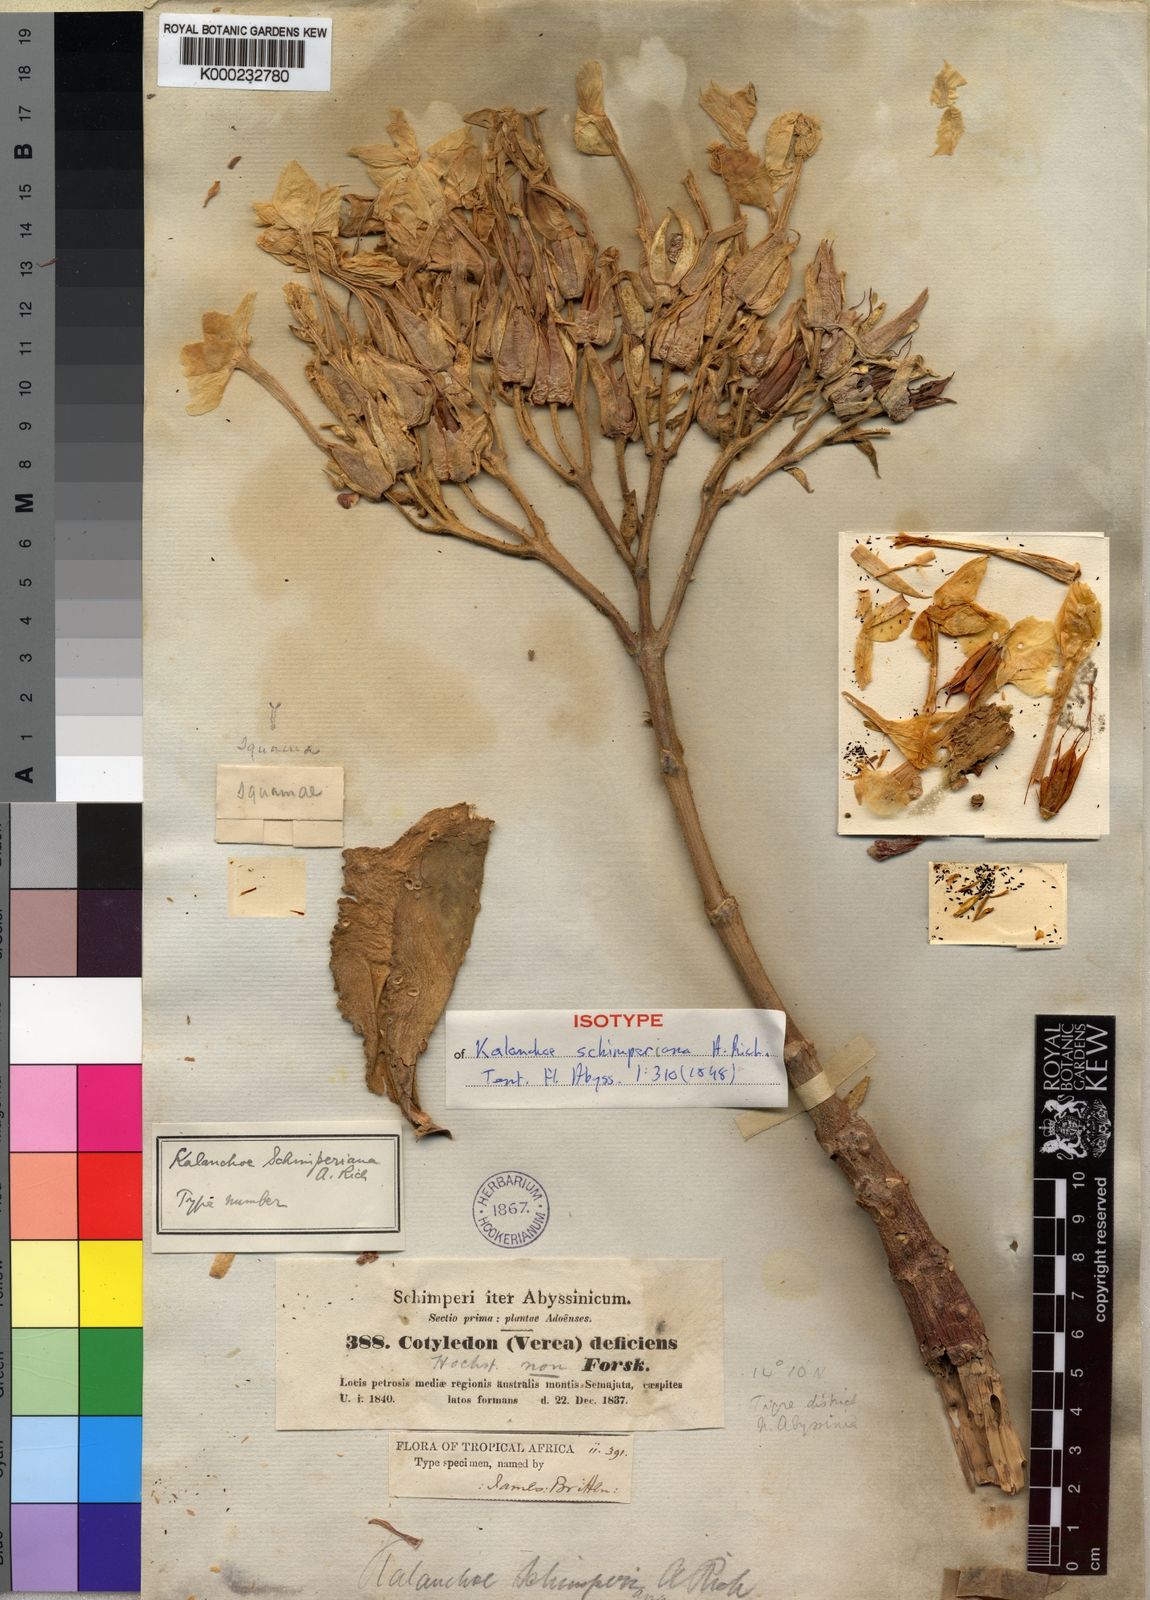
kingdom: Plantae
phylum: Tracheophyta
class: Magnoliopsida
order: Saxifragales
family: Crassulaceae
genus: Kalanchoe
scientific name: Kalanchoe schimperiana
